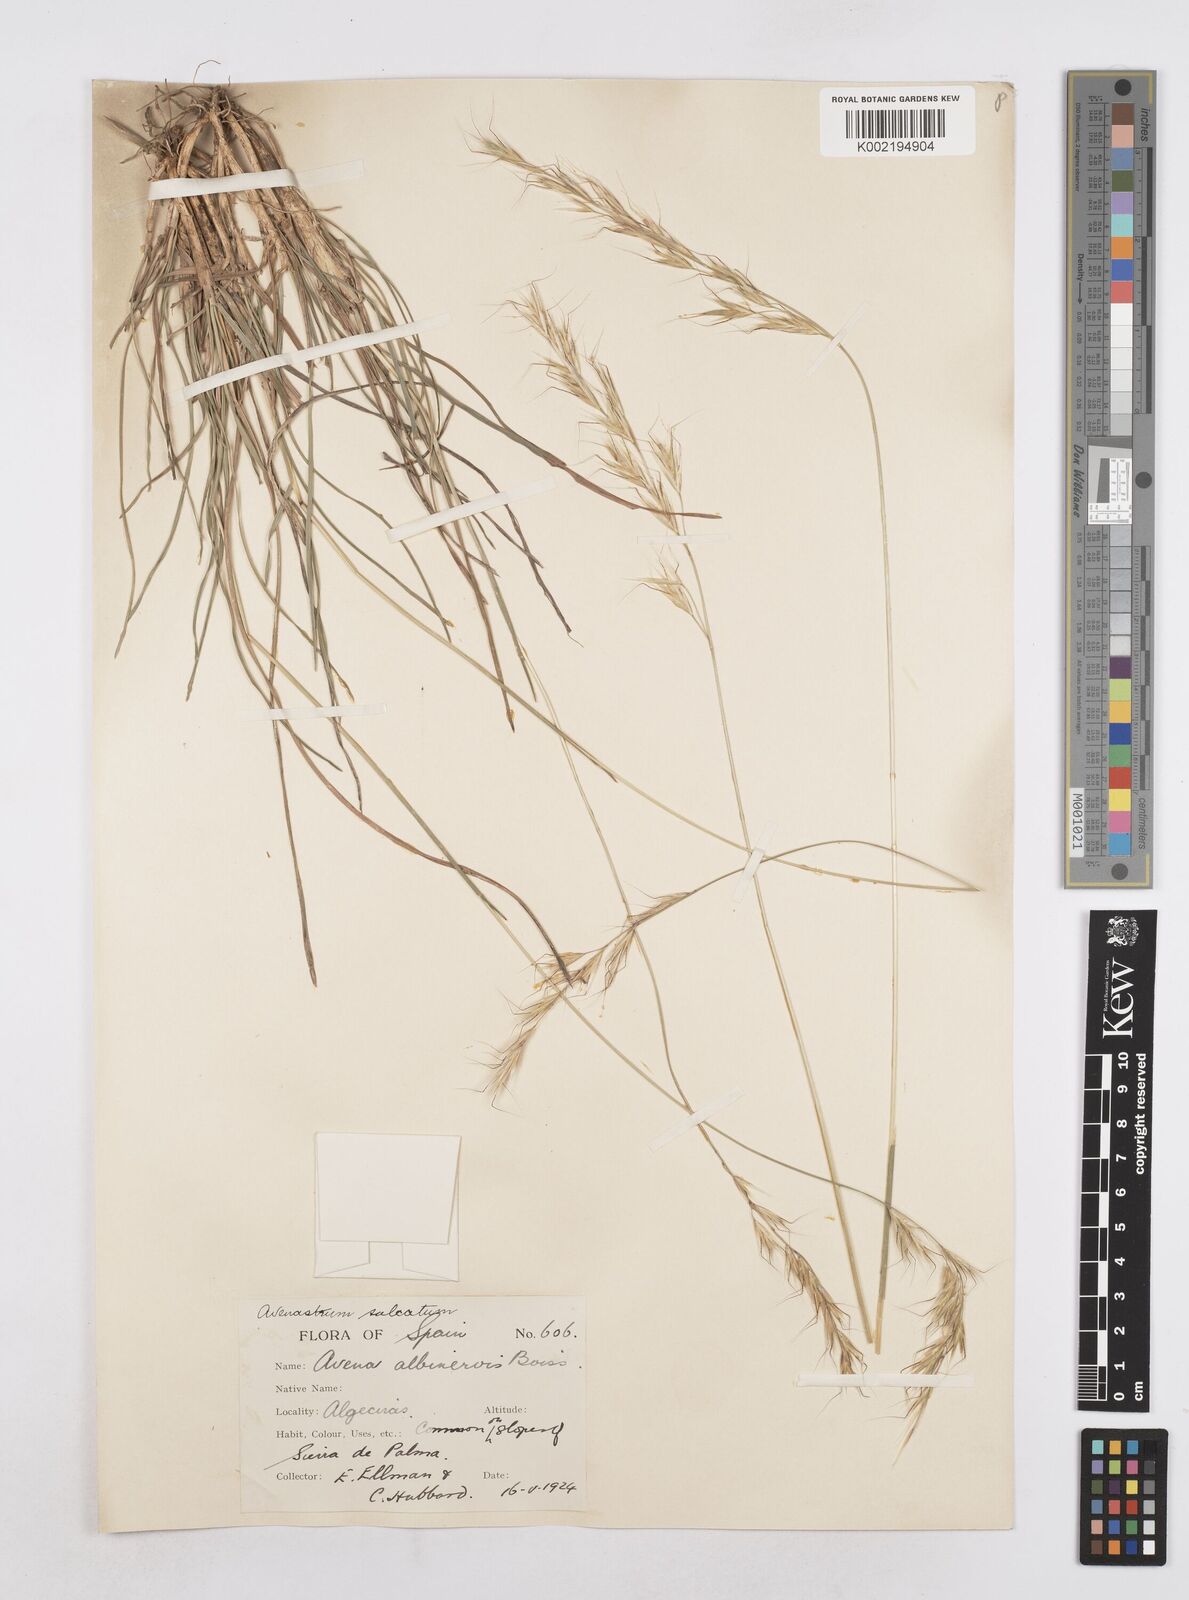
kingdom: Plantae
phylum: Tracheophyta
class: Liliopsida
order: Poales
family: Poaceae
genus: Helictotrichon
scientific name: Helictotrichon
